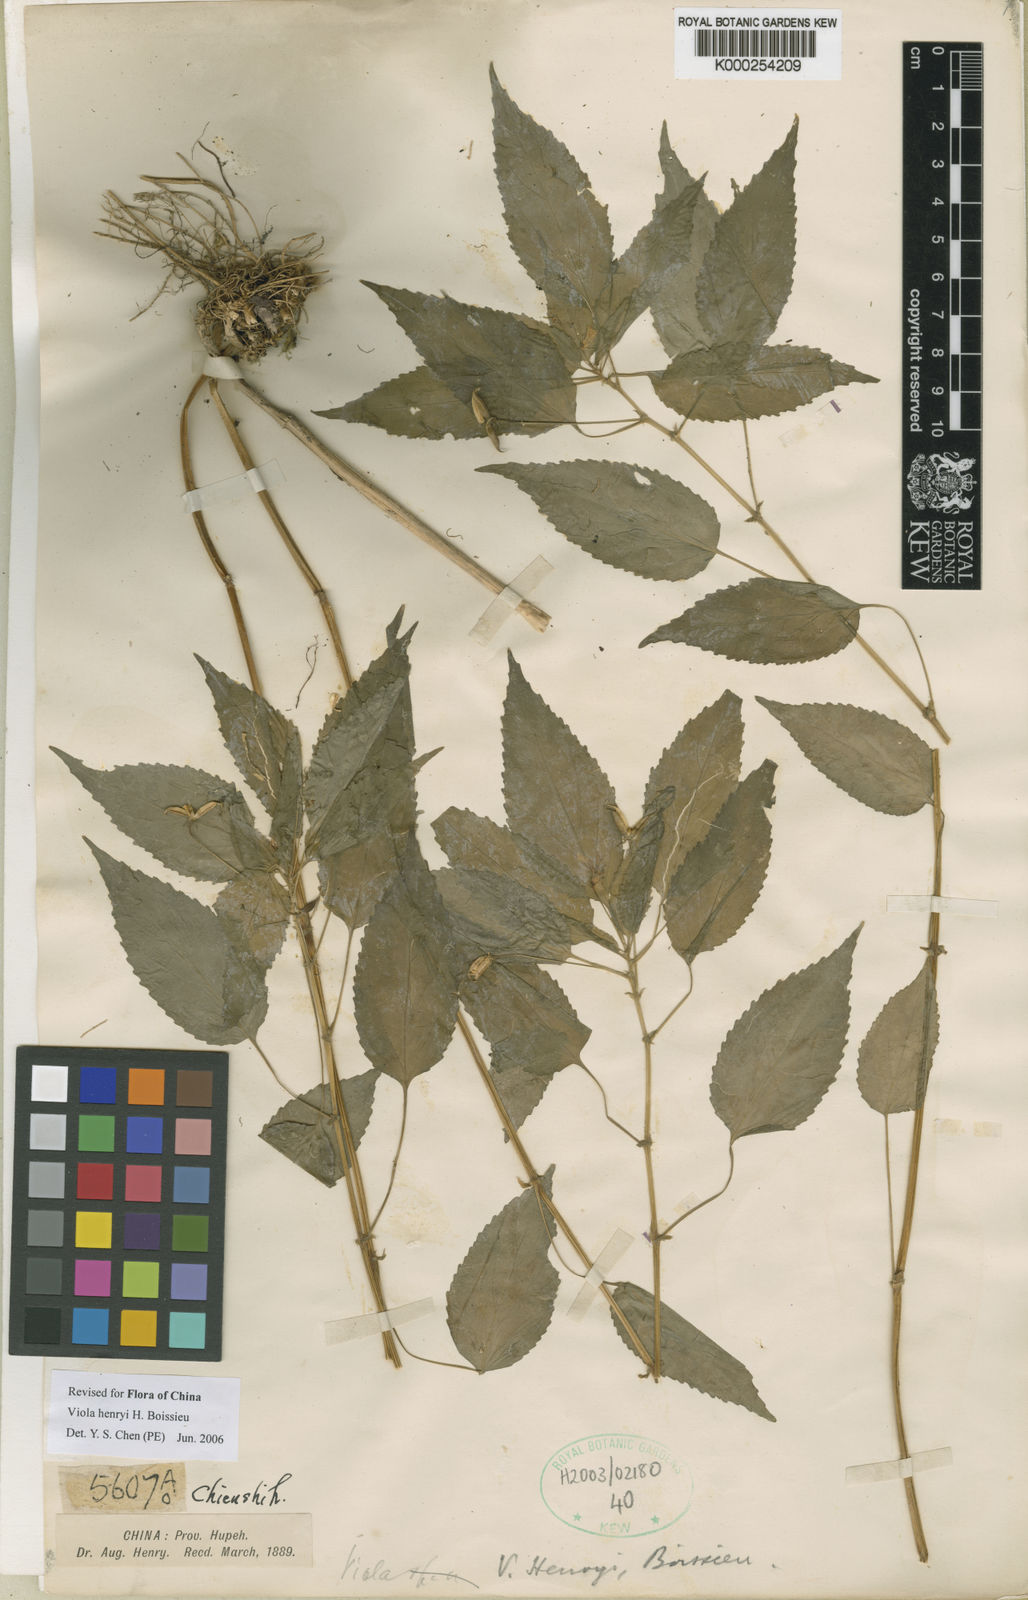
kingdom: Plantae
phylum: Tracheophyta
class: Magnoliopsida
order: Malpighiales
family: Violaceae
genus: Viola
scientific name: Viola henryi
